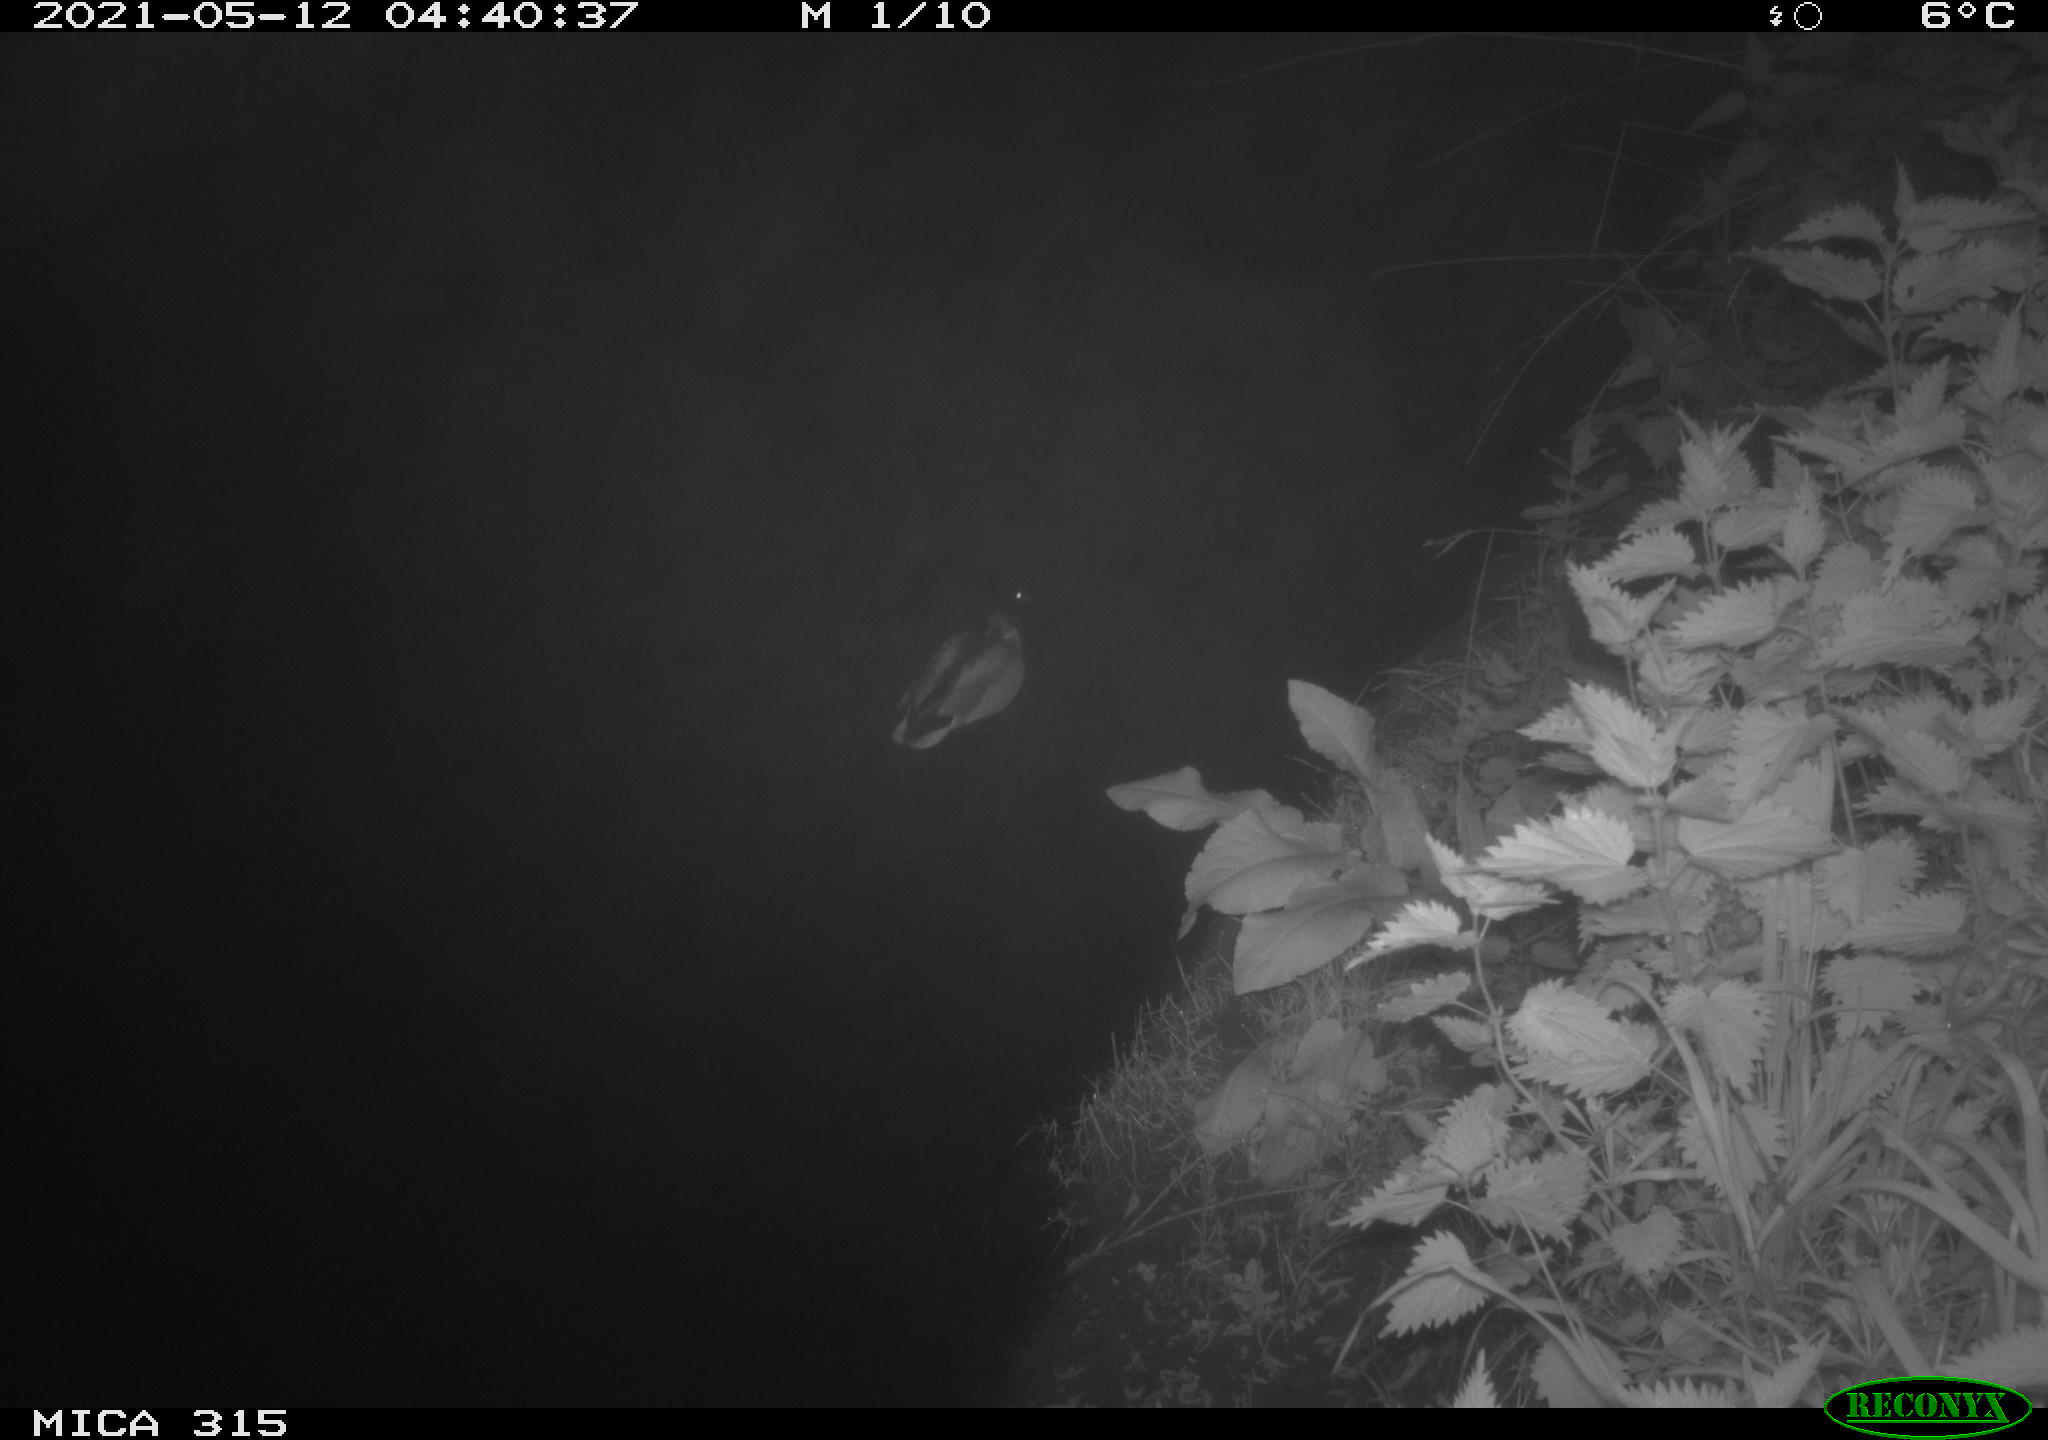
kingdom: Animalia
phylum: Chordata
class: Aves
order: Anseriformes
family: Anatidae
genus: Anas
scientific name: Anas
